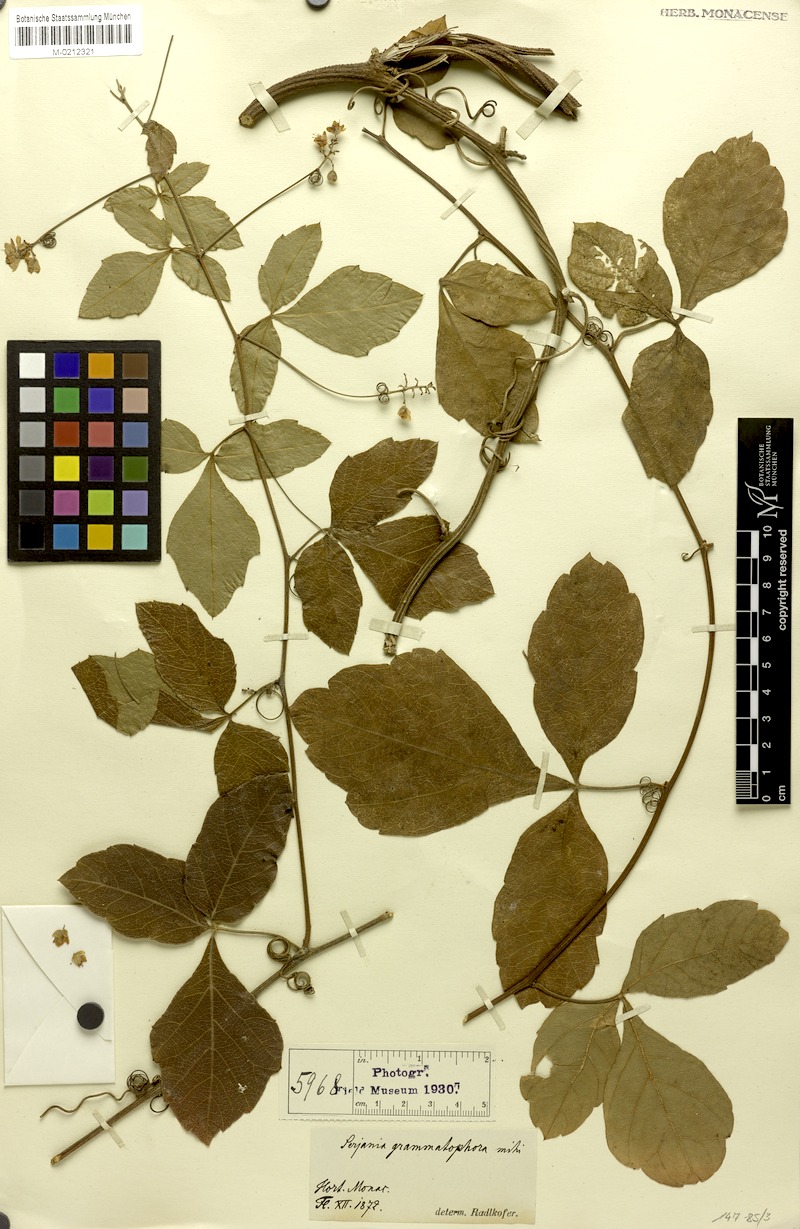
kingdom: Plantae
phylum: Tracheophyta
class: Magnoliopsida
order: Sapindales
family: Sapindaceae
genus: Serjania
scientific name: Serjania grammatophora
